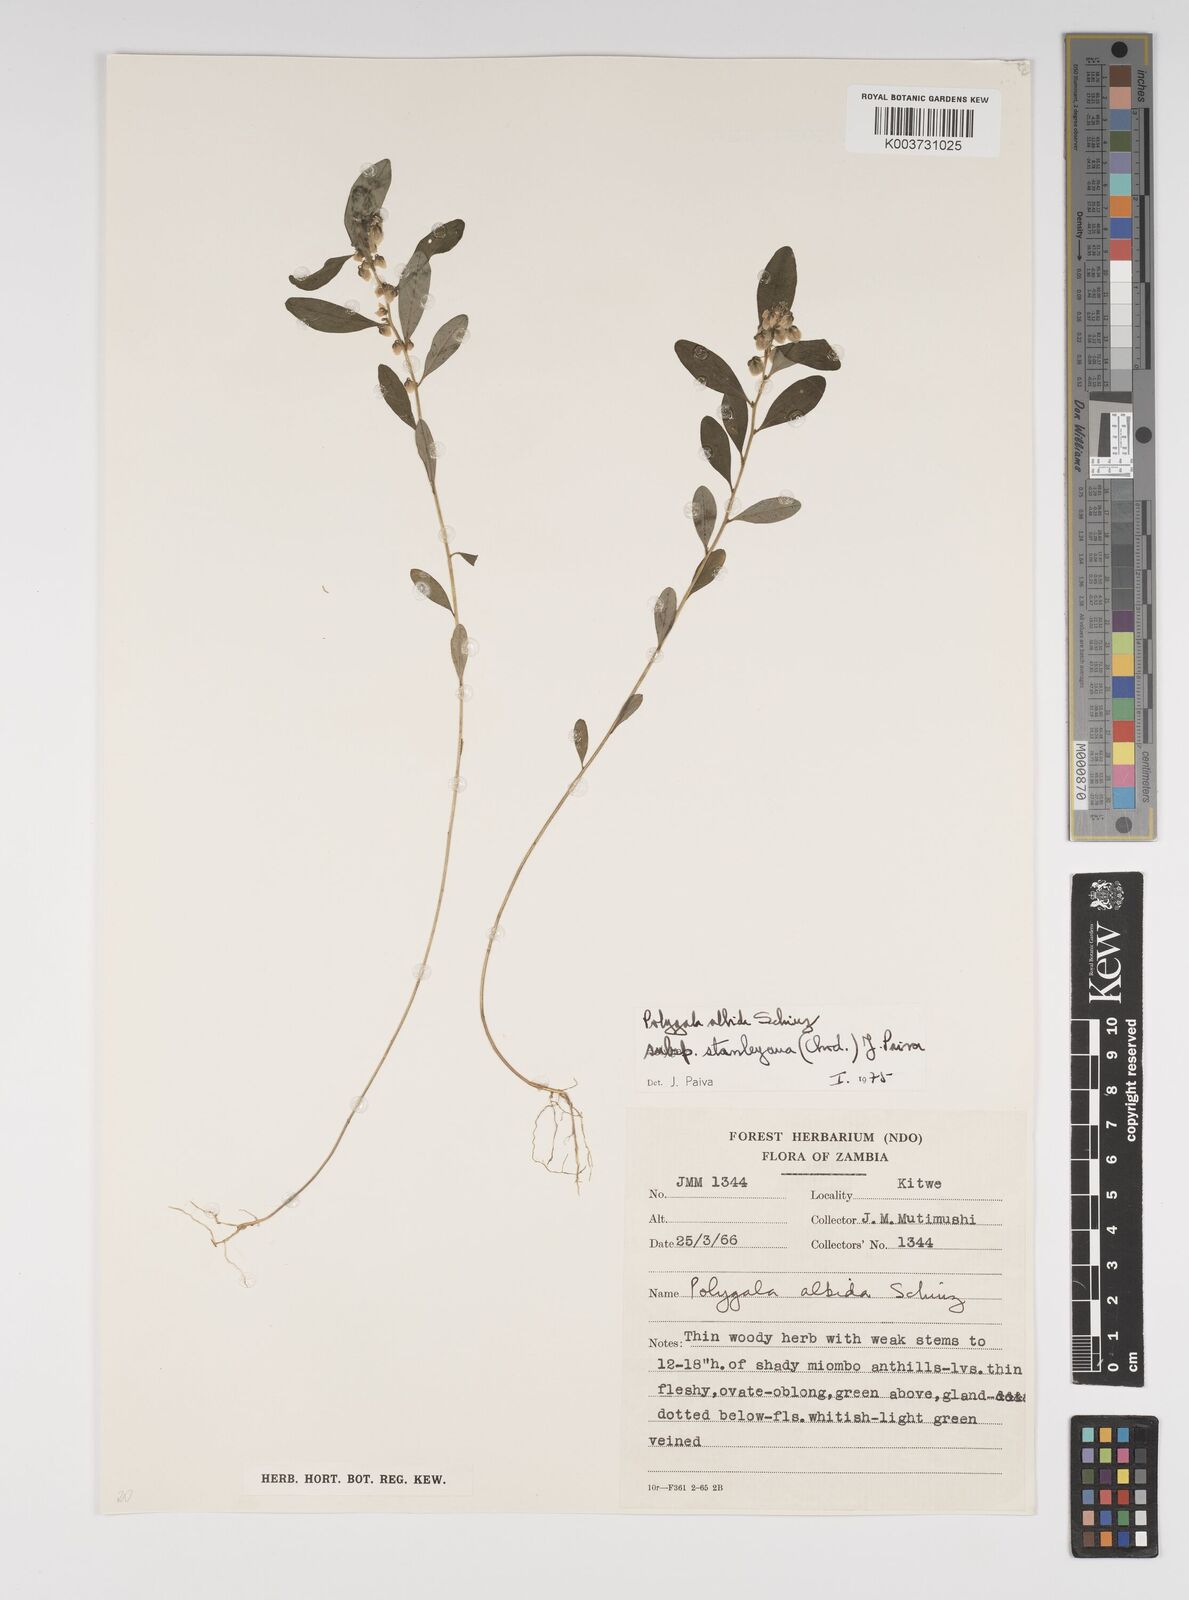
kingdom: Plantae
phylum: Tracheophyta
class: Magnoliopsida
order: Fabales
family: Polygalaceae
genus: Polygala
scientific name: Polygala albida
